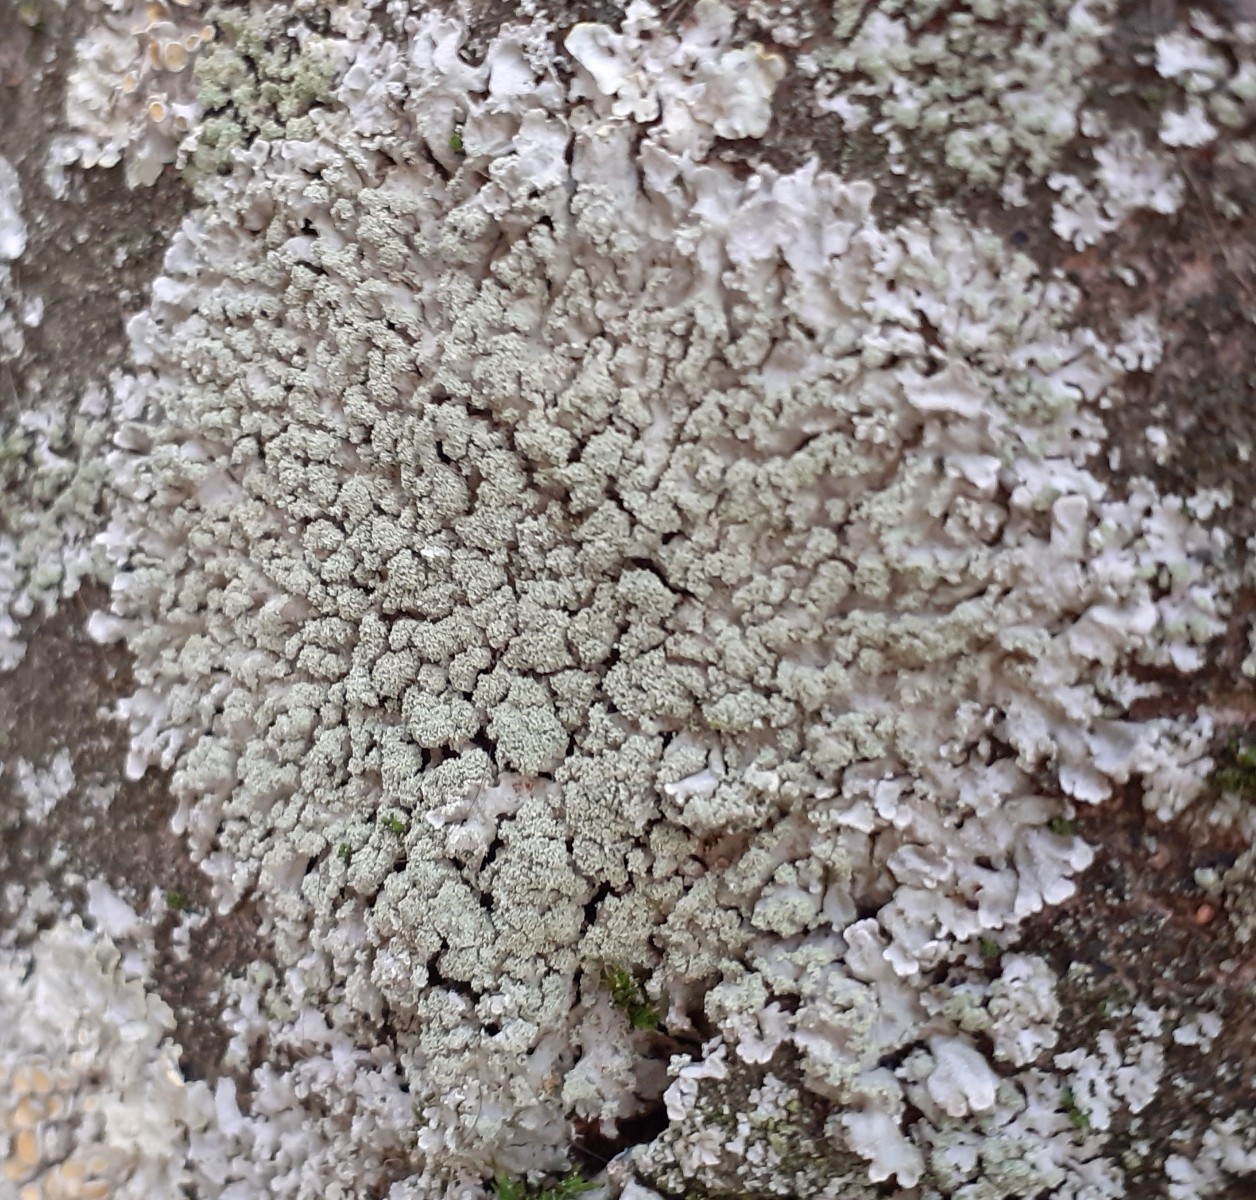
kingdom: Fungi
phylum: Ascomycota
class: Lecanoromycetes
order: Caliciales
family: Physciaceae
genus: Poeltonia
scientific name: Poeltonia grisea
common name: hvidgrå dugrosetlav
